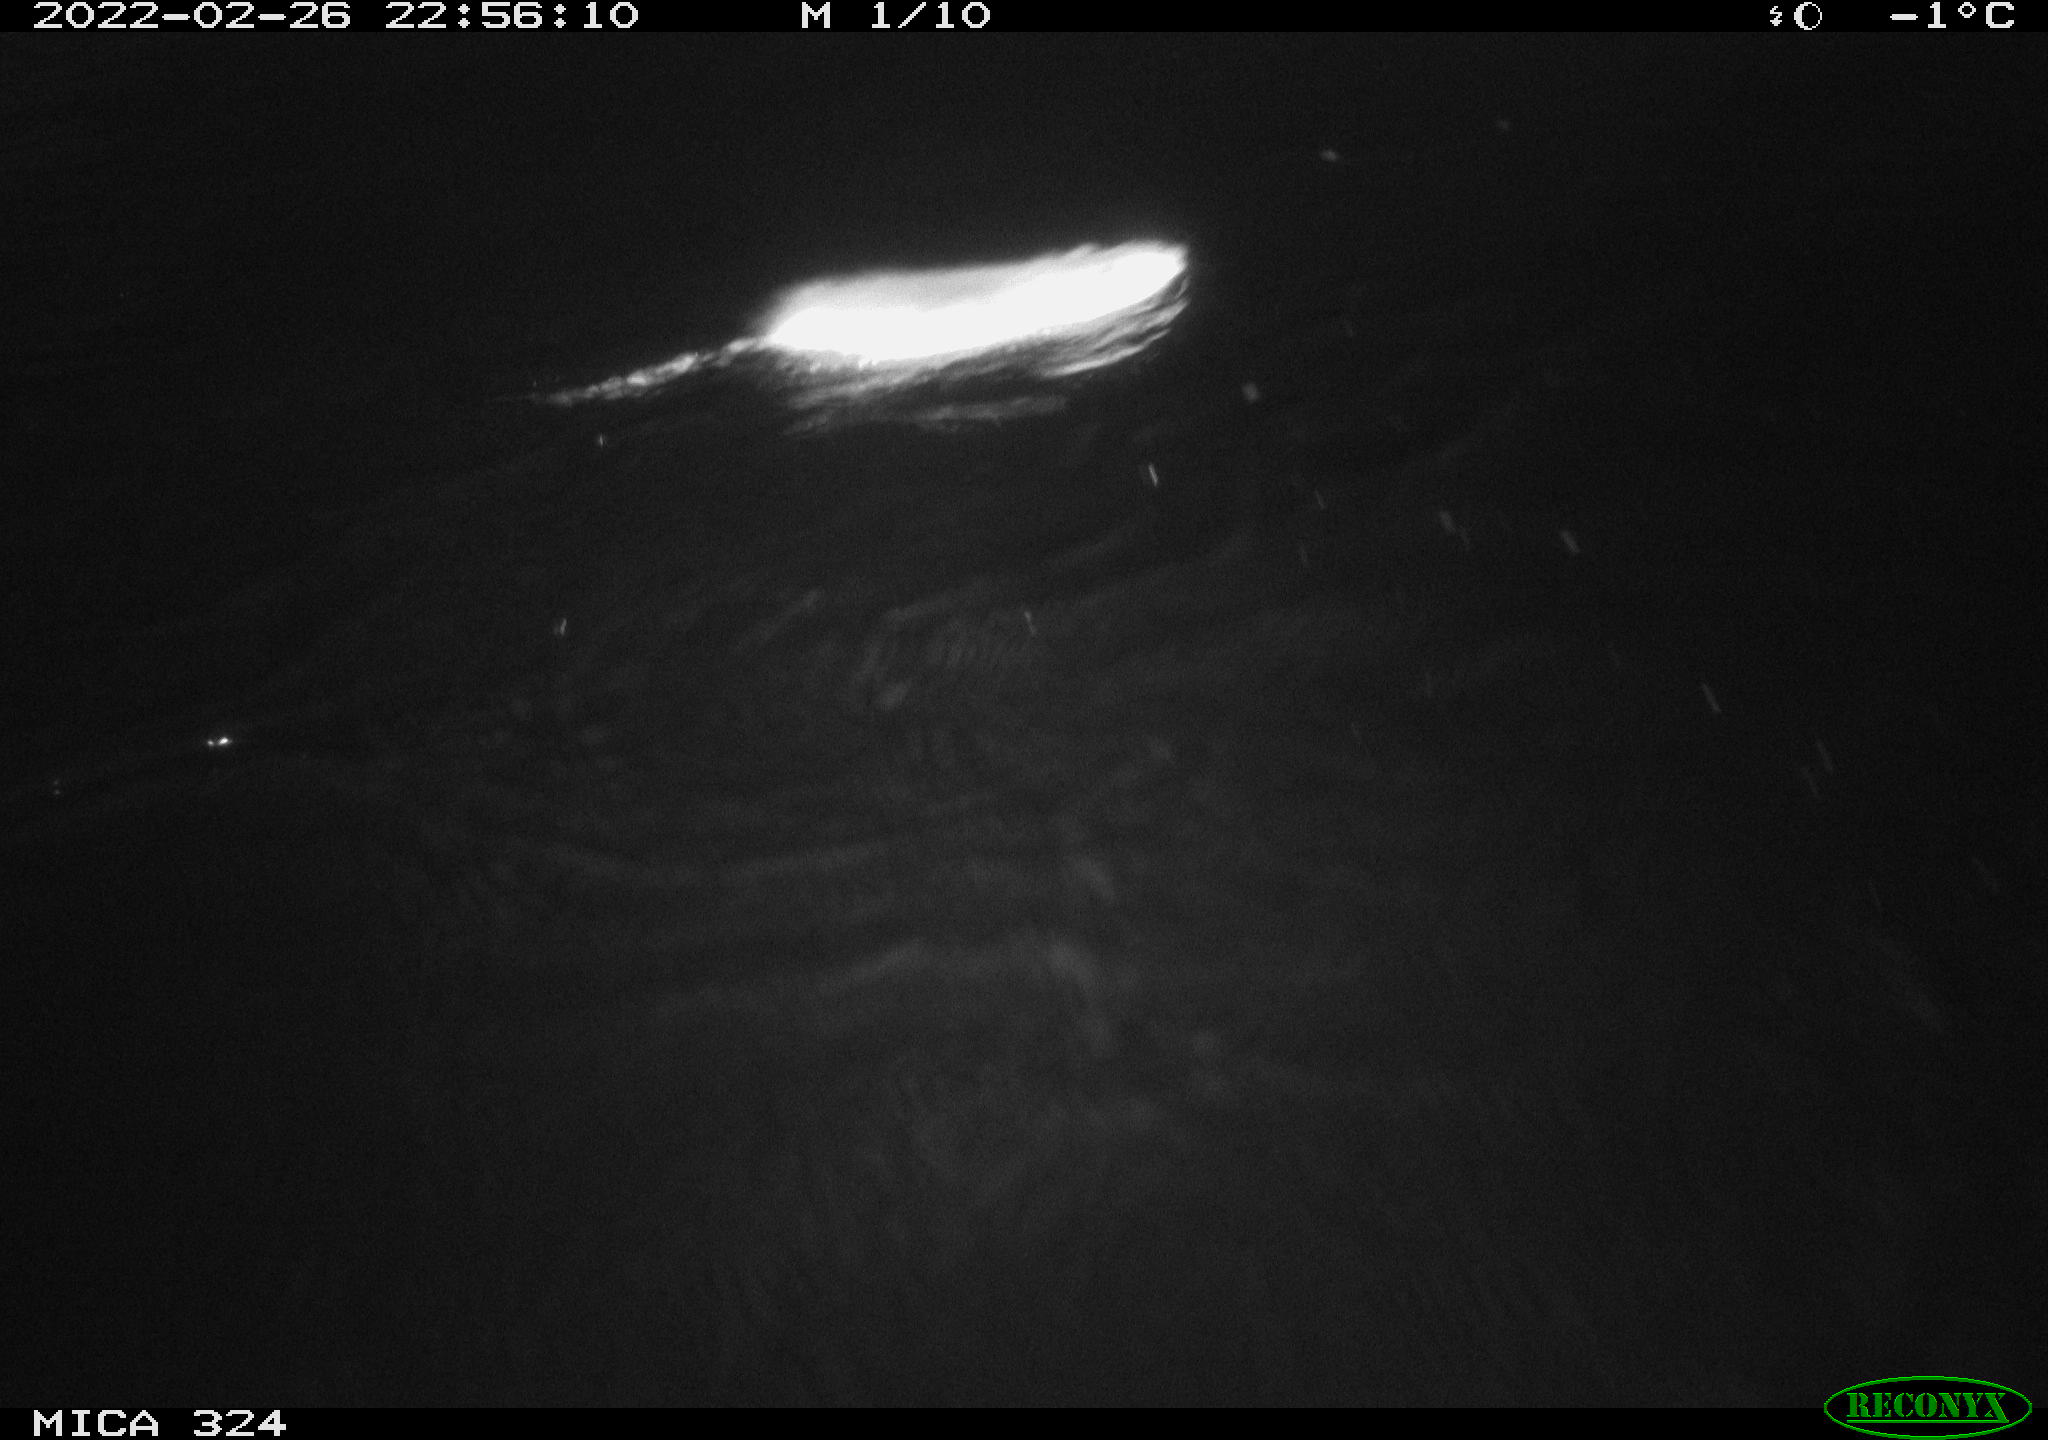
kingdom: Animalia
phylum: Chordata
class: Mammalia
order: Rodentia
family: Cricetidae
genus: Ondatra
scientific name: Ondatra zibethicus
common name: Muskrat
